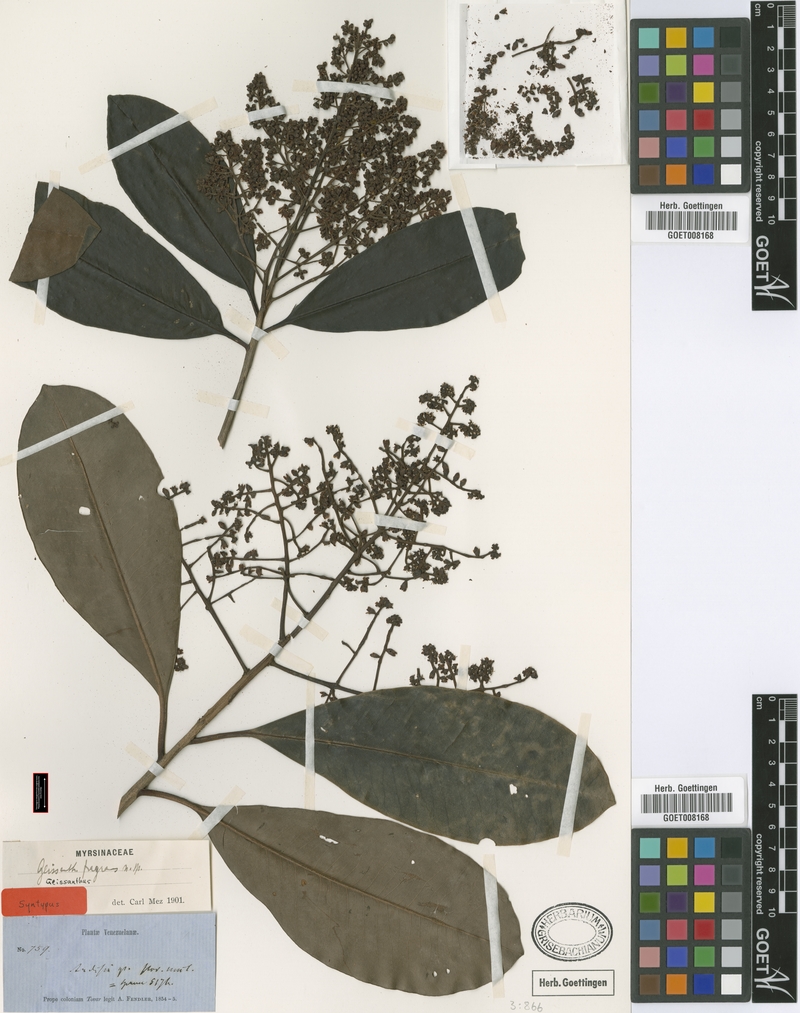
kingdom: Plantae
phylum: Tracheophyta
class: Magnoliopsida
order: Ericales
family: Primulaceae
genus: Geissanthus
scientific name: Geissanthus fragrans
